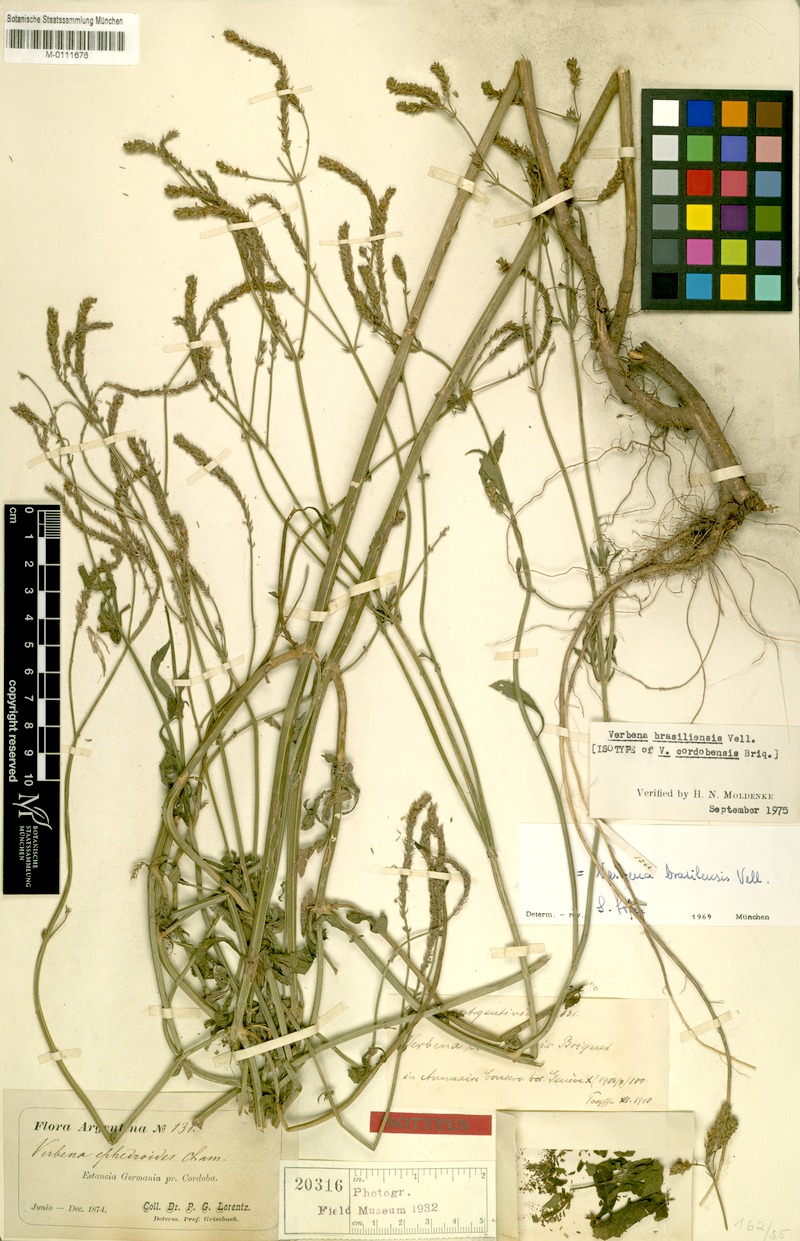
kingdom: Plantae
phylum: Tracheophyta
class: Magnoliopsida
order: Lamiales
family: Verbenaceae
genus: Verbena
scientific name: Verbena litoralis
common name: Seashore vervain
